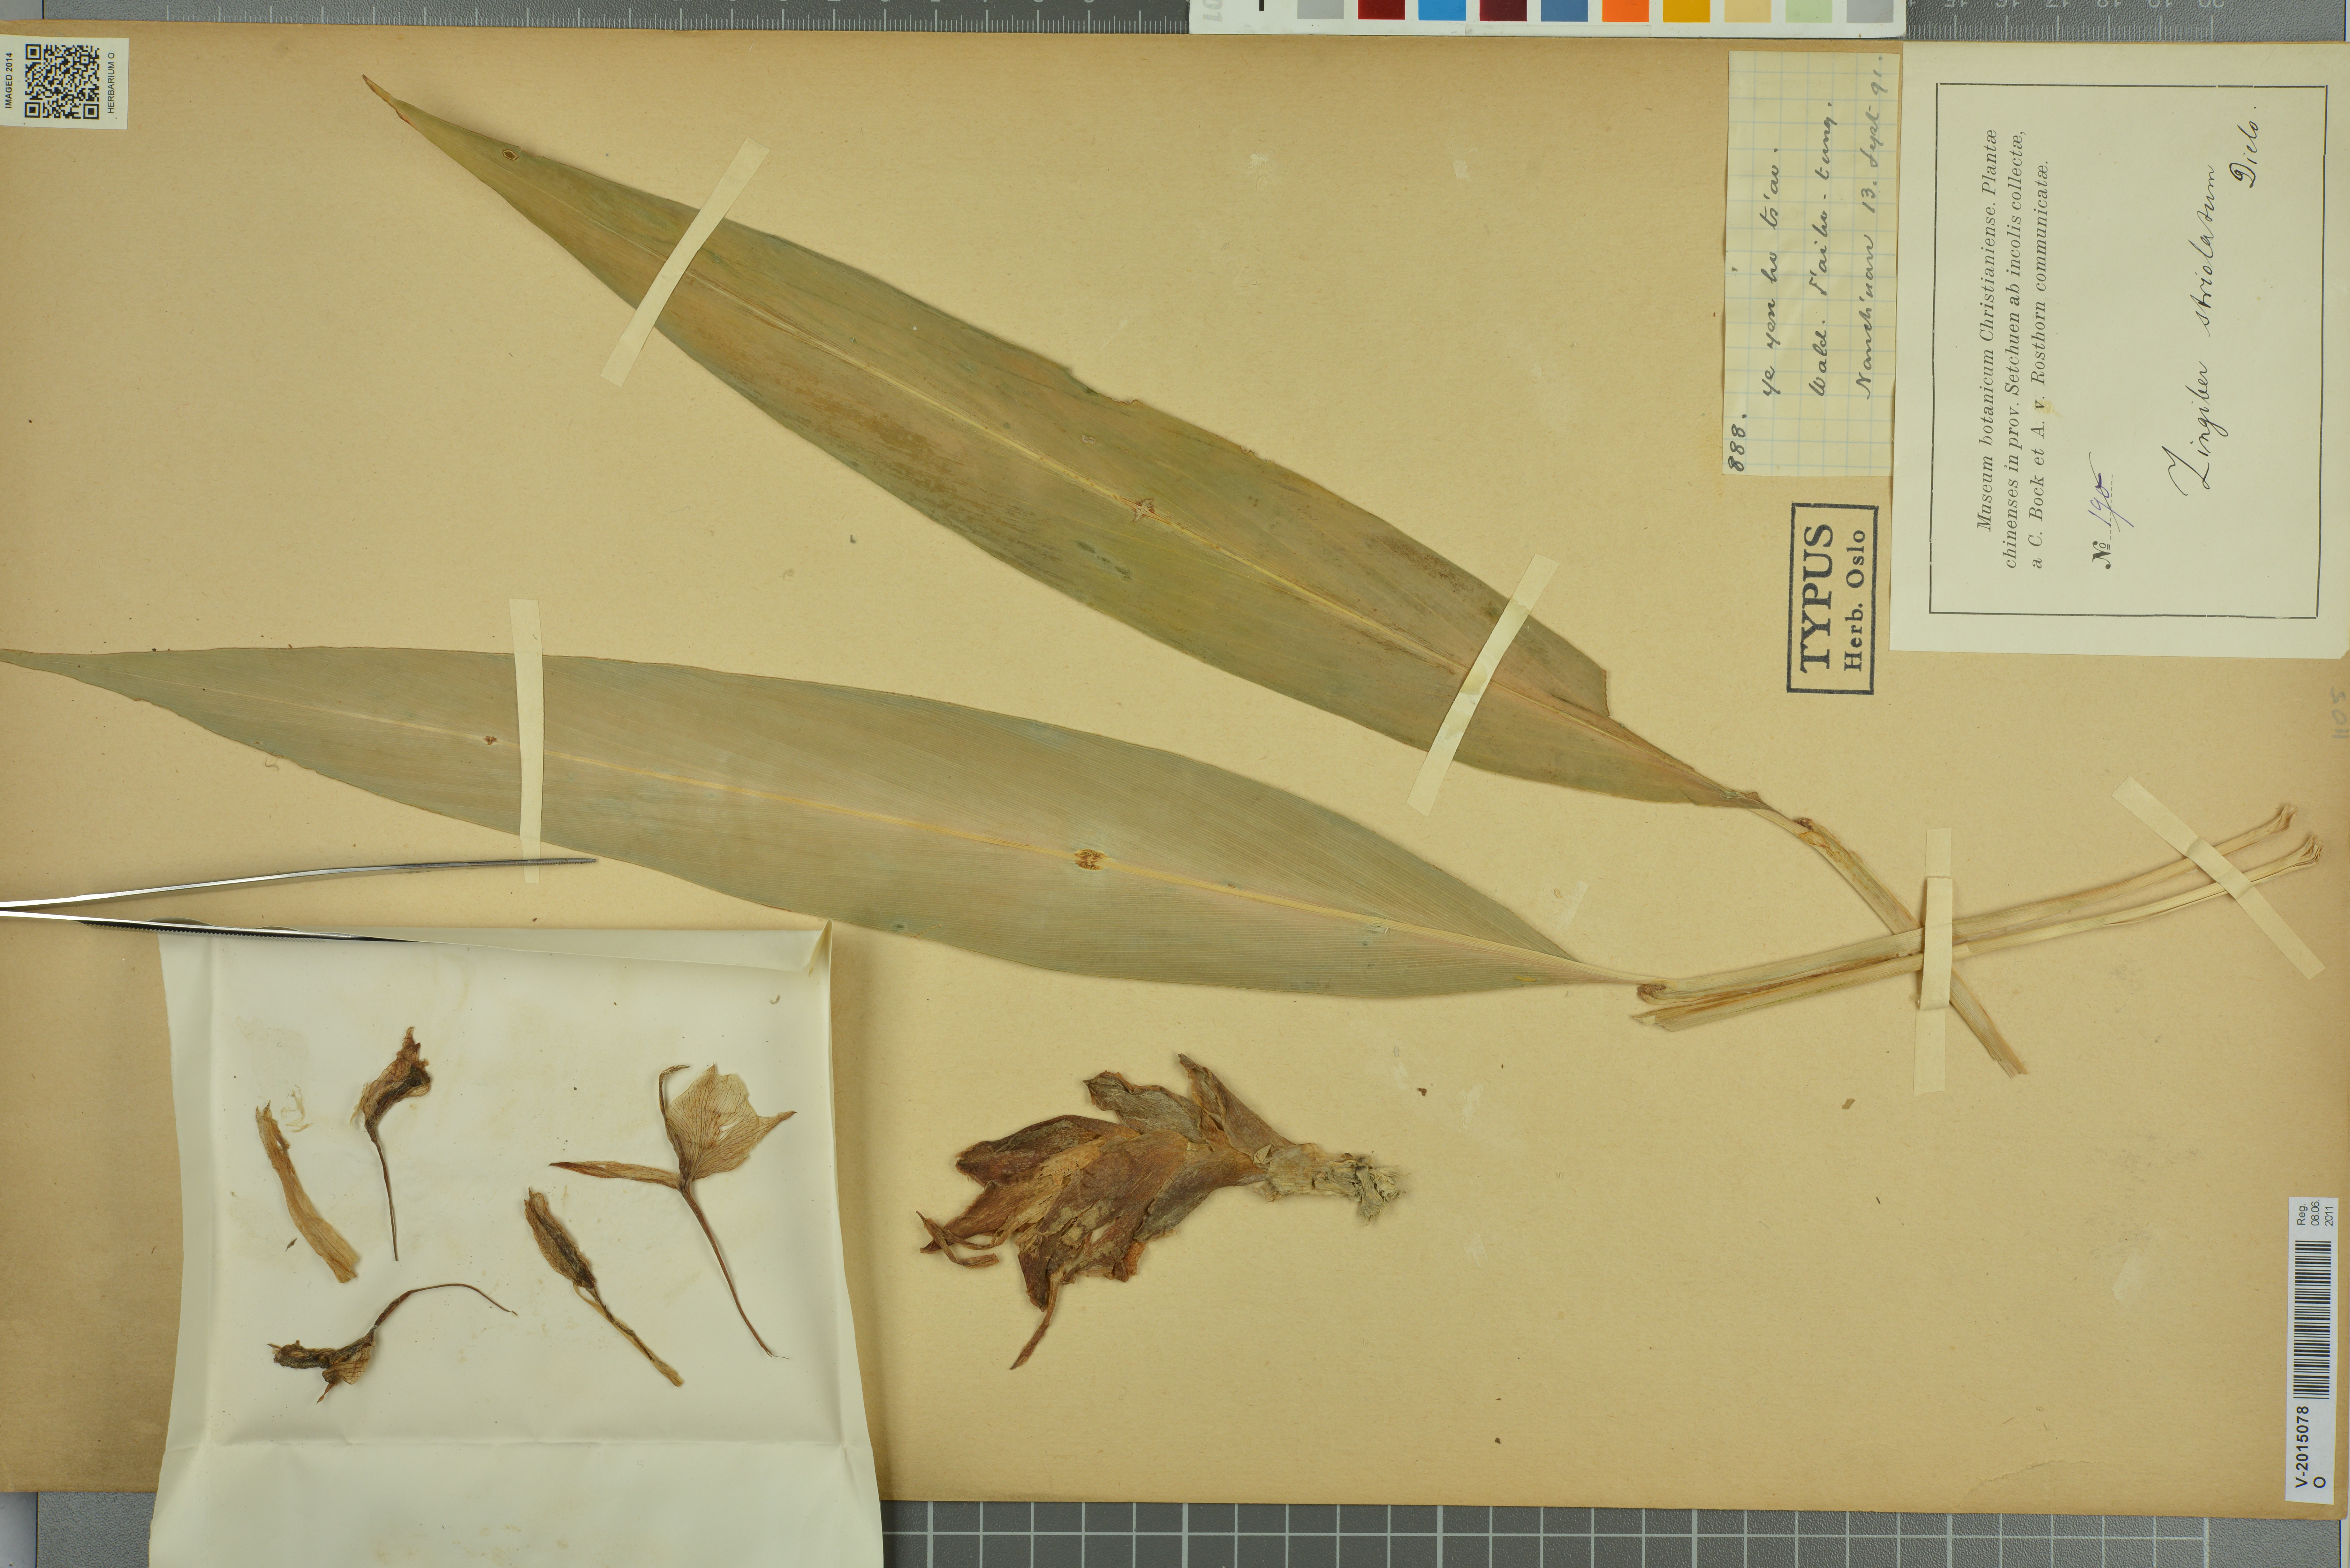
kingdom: Plantae
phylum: Tracheophyta
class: Liliopsida
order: Zingiberales
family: Zingiberaceae
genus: Zingiber
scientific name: Zingiber striolatum
